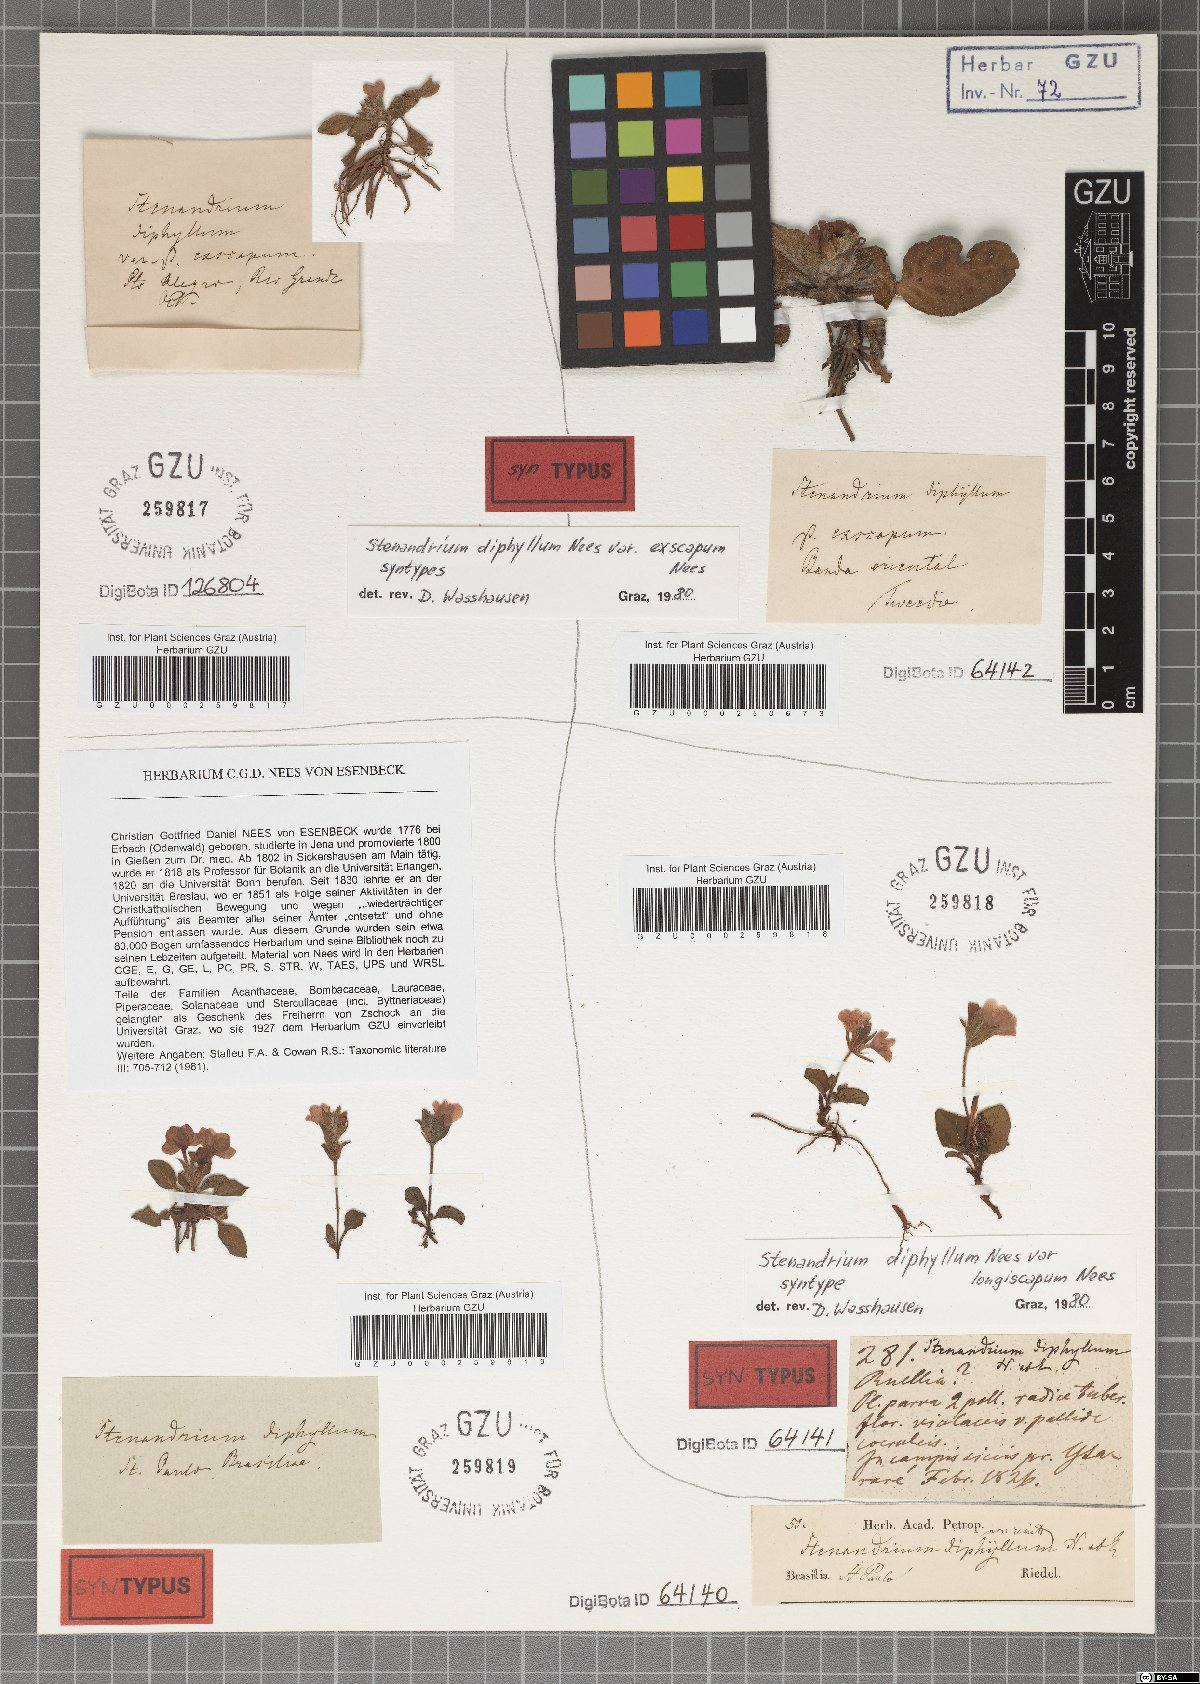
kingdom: Plantae
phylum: Tracheophyta
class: Magnoliopsida
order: Lamiales
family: Acanthaceae
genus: Stenandrium
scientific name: Stenandrium diphyllum
